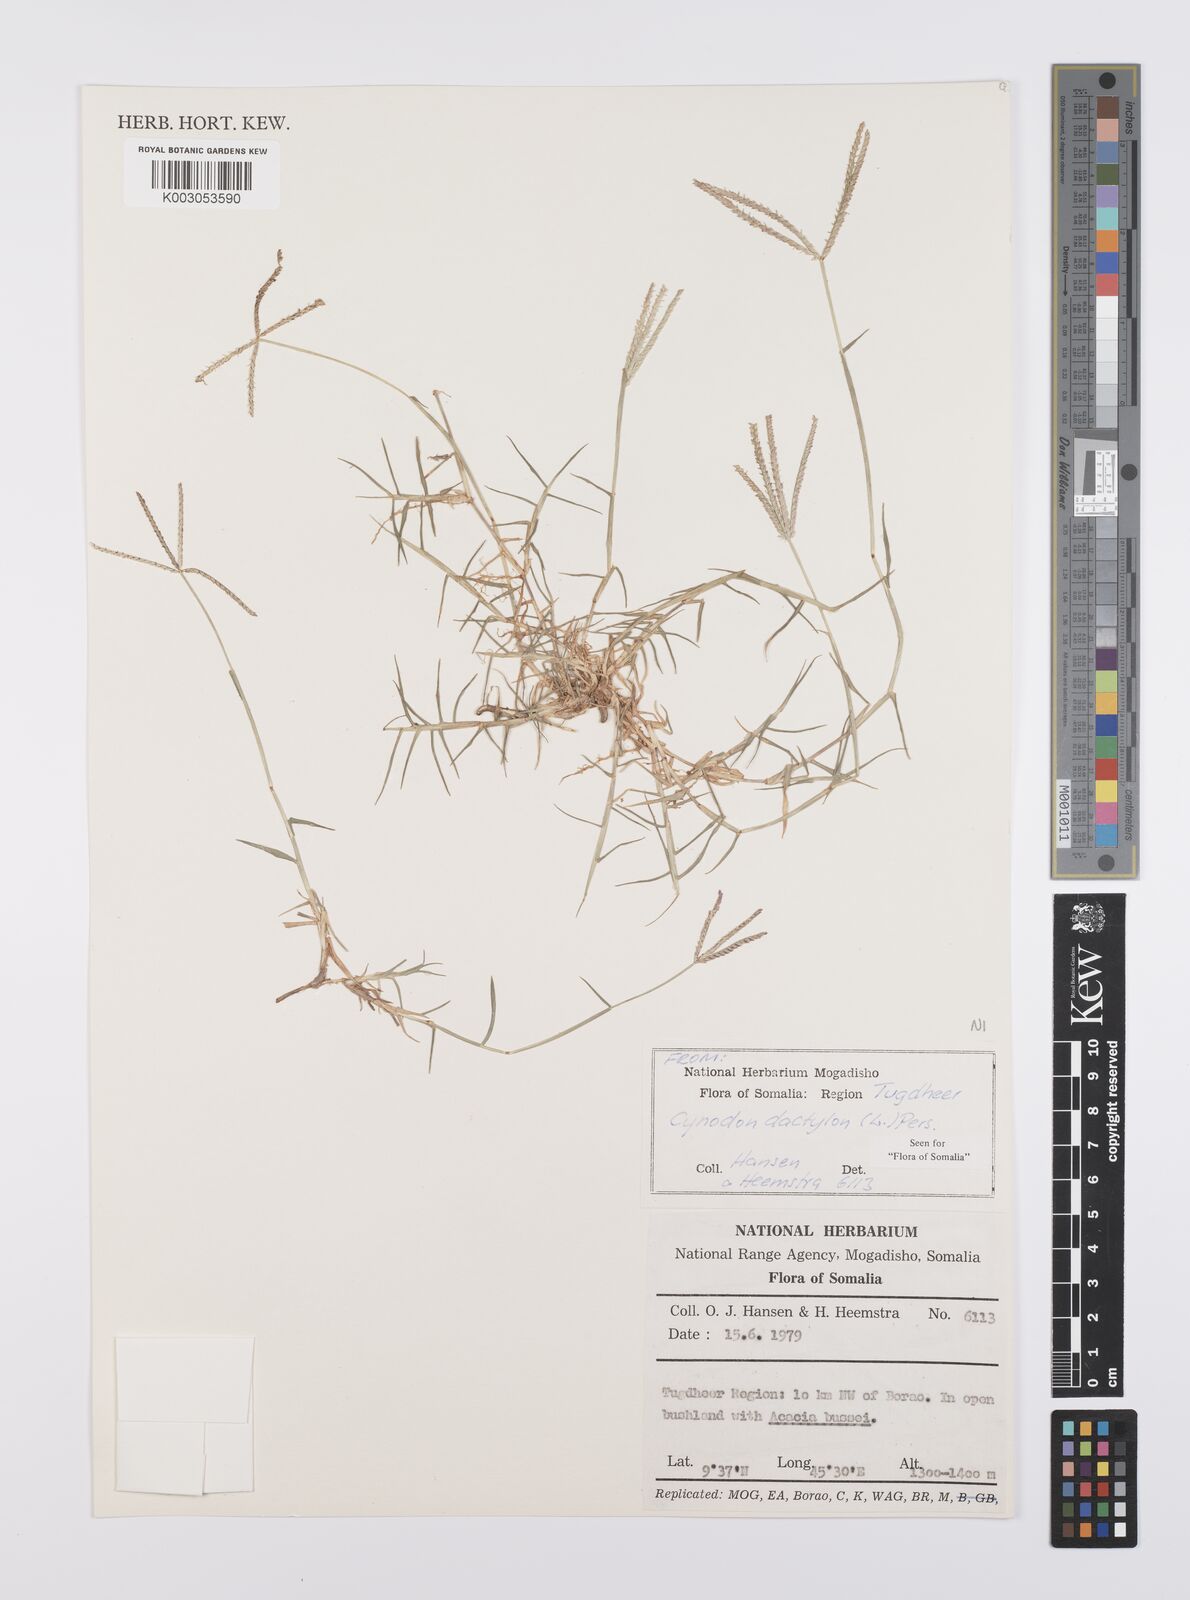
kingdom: Plantae
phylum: Tracheophyta
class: Liliopsida
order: Poales
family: Poaceae
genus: Cynodon
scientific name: Cynodon dactylon
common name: Bermuda grass
